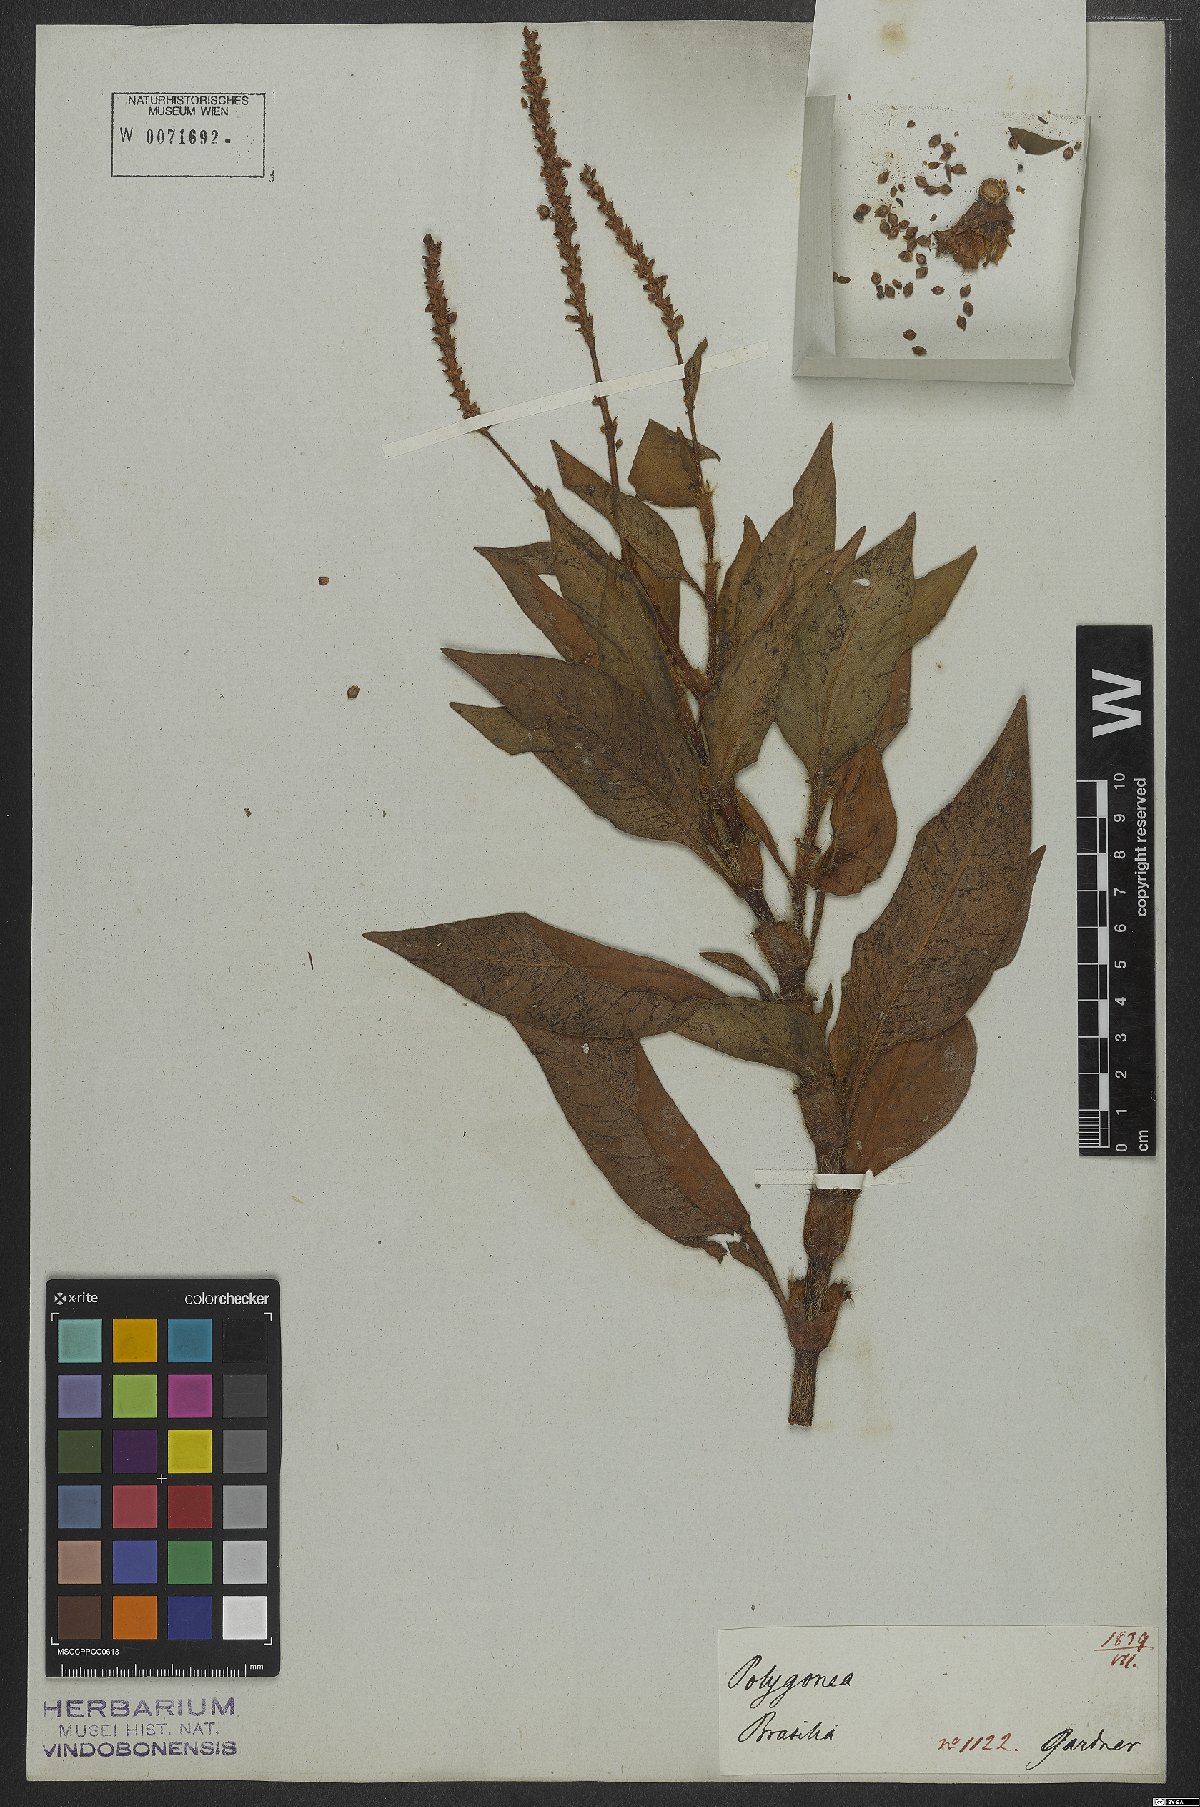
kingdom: Plantae
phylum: Tracheophyta
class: Magnoliopsida
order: Caryophyllales
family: Polygonaceae
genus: Persicaria
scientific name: Persicaria hispida
